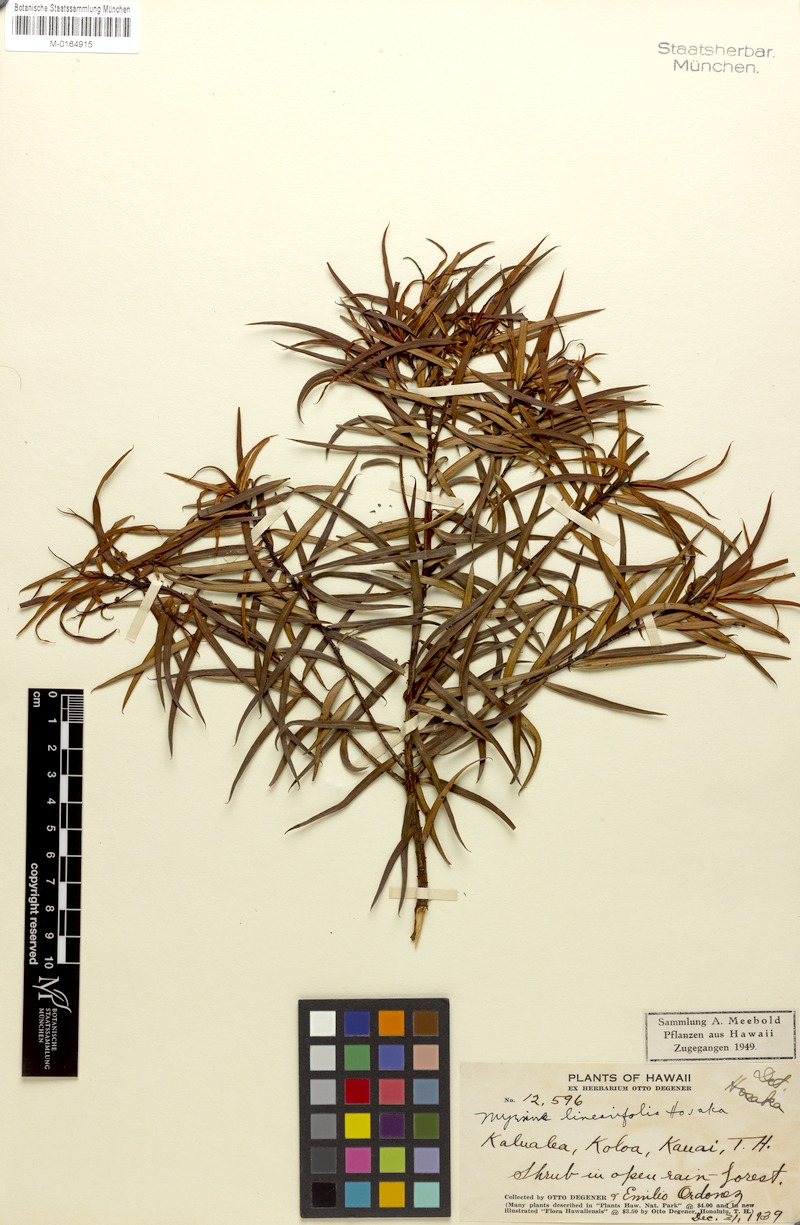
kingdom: Plantae
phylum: Tracheophyta
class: Magnoliopsida
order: Ericales
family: Primulaceae
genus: Myrsine
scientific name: Myrsine linearifolia
